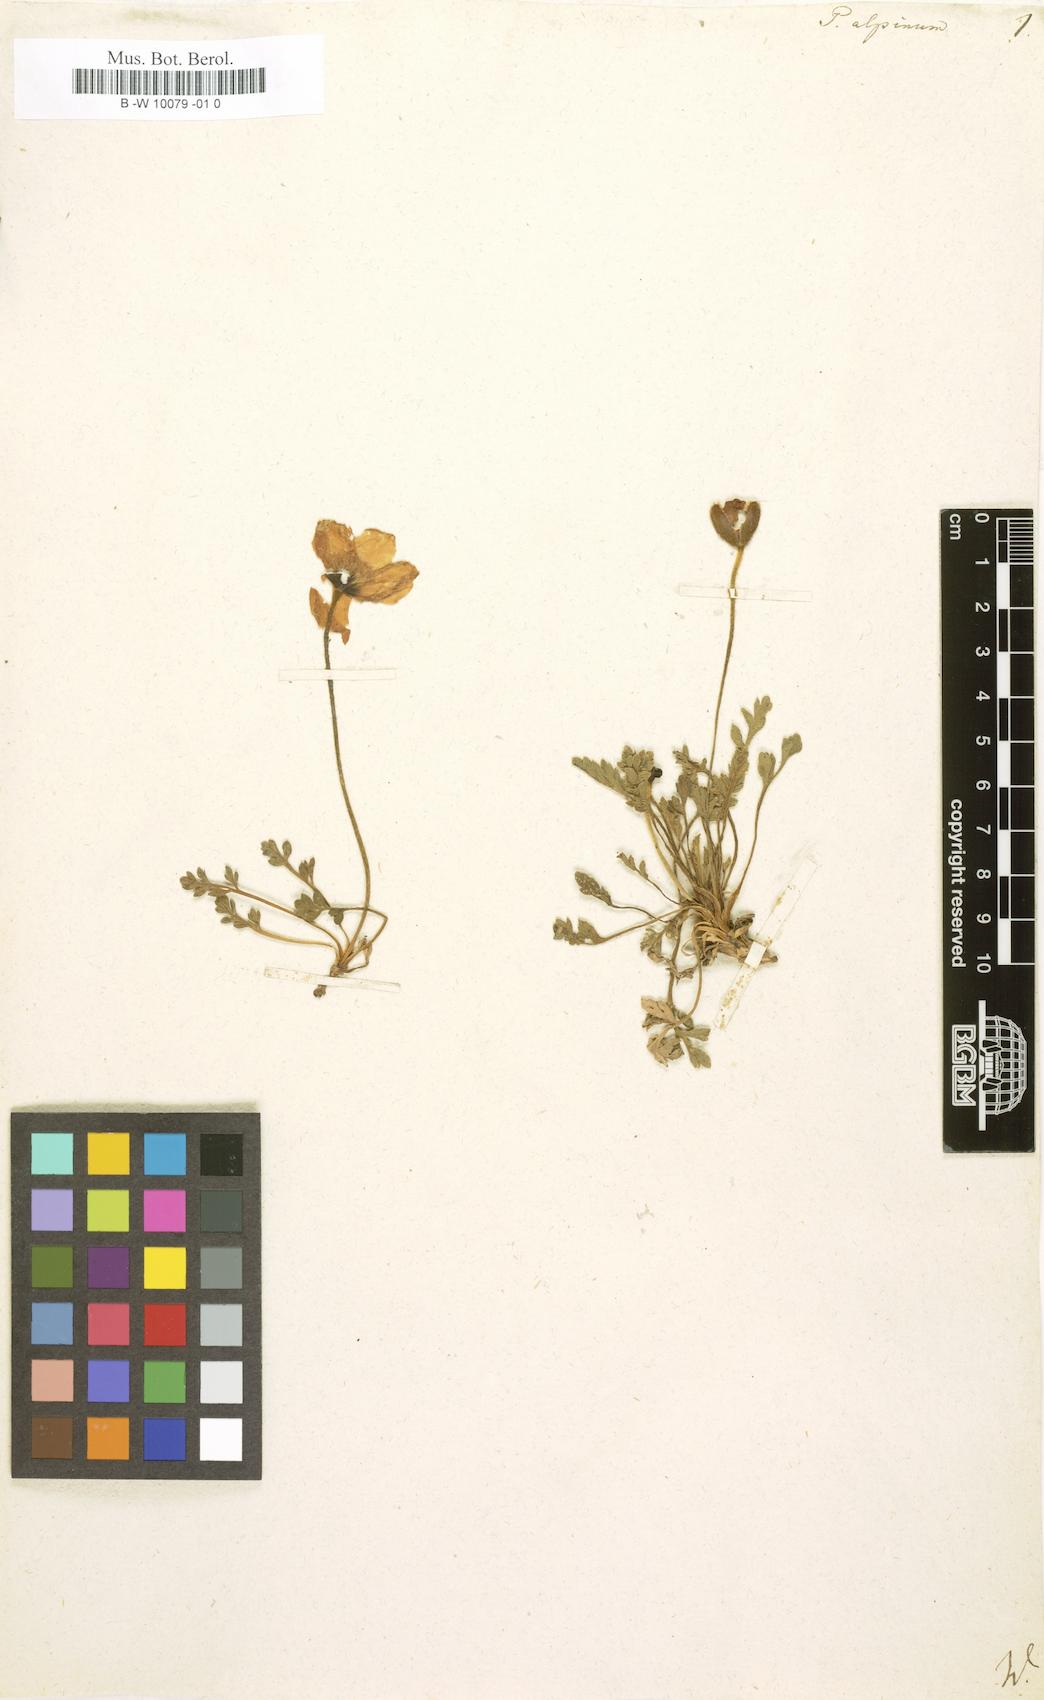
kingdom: Plantae
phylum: Tracheophyta
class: Magnoliopsida
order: Ranunculales
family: Papaveraceae
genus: Papaver
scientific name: Papaver alpinum
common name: Austrian poppy
